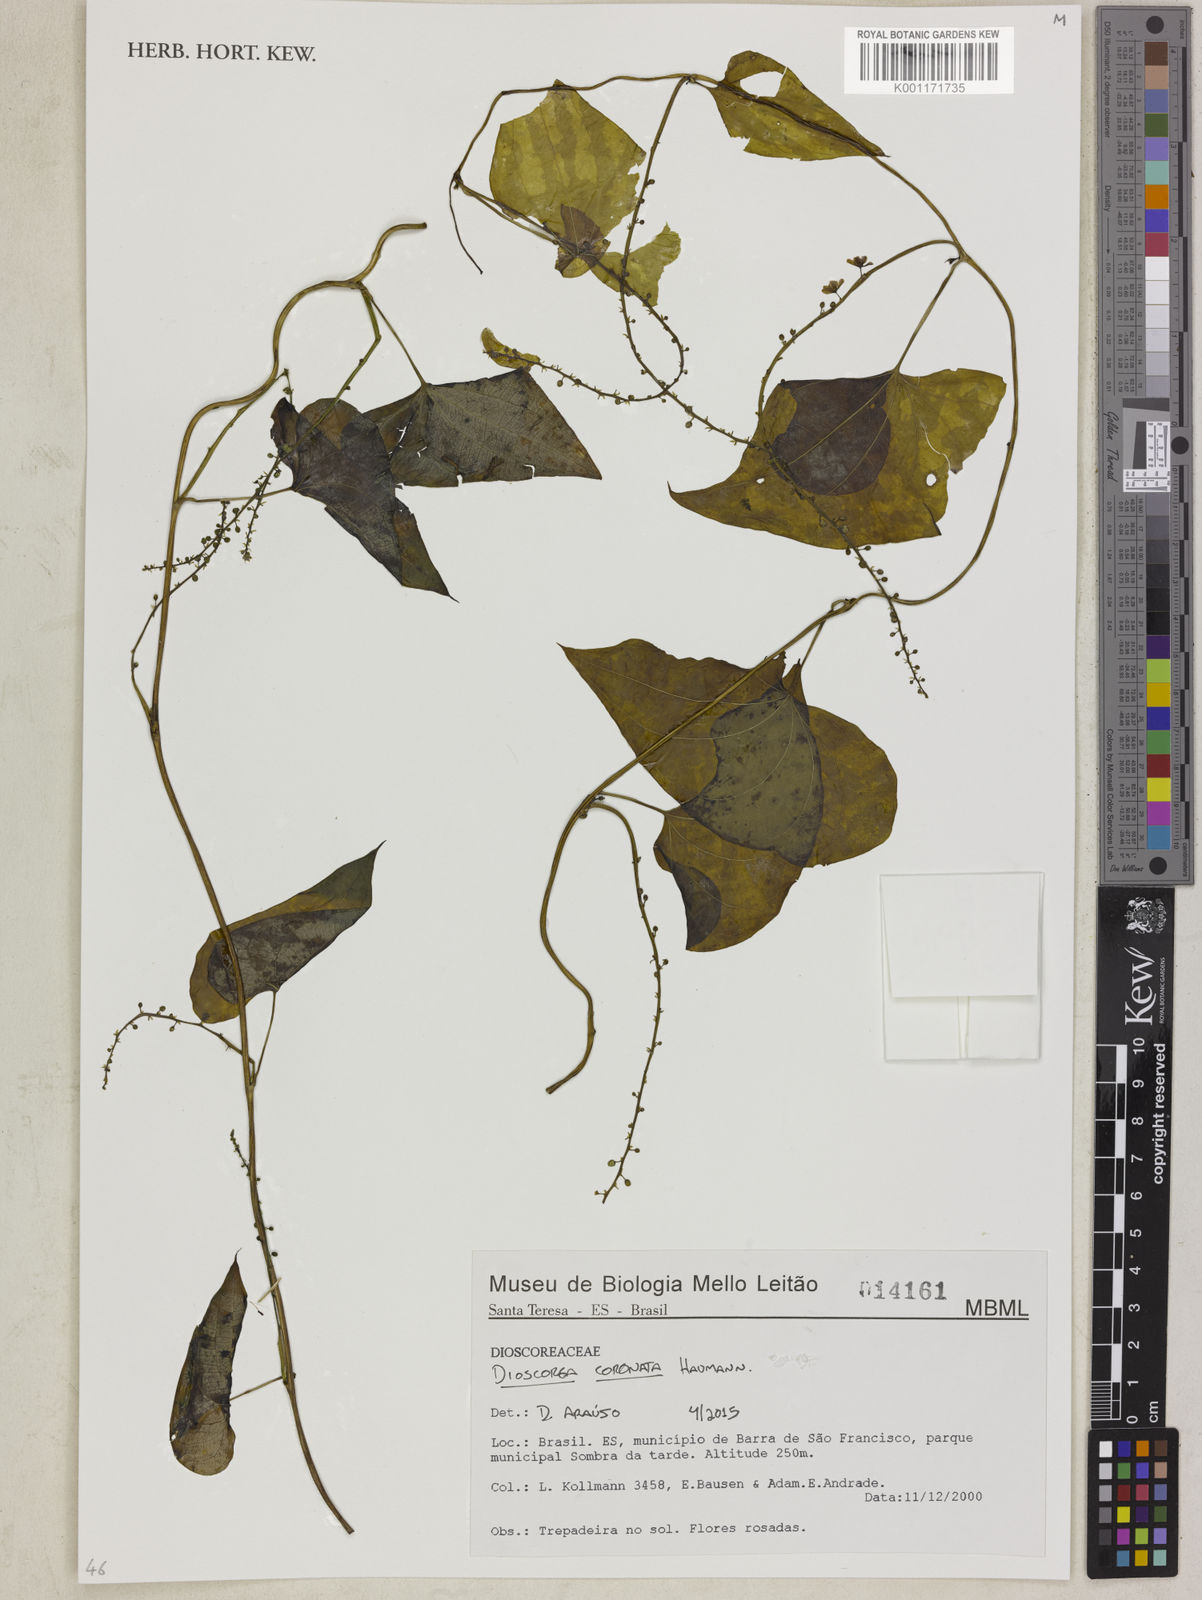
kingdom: Plantae
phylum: Tracheophyta
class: Liliopsida
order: Dioscoreales
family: Dioscoreaceae
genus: Dioscorea
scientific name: Dioscorea glandulosa
